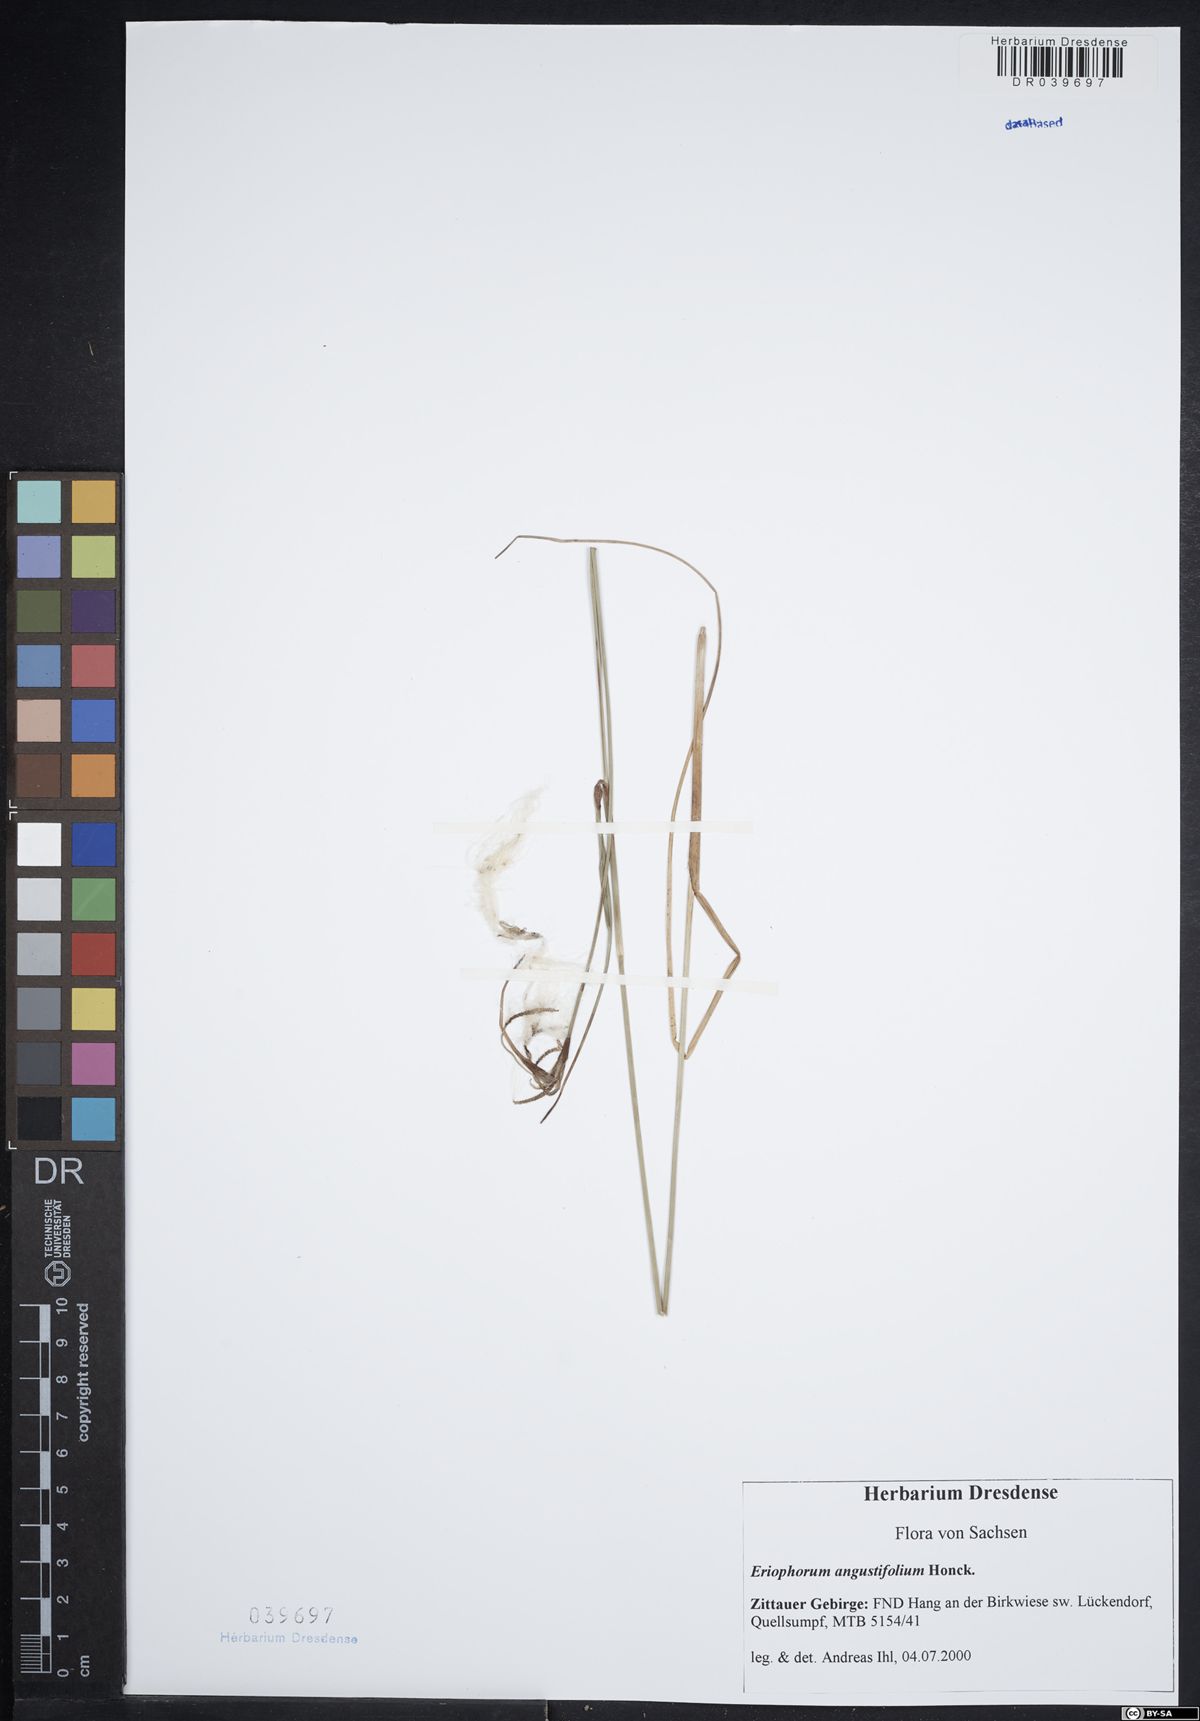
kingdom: Plantae
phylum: Tracheophyta
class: Liliopsida
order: Poales
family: Cyperaceae
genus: Eriophorum
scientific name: Eriophorum angustifolium
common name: Common cottongrass
